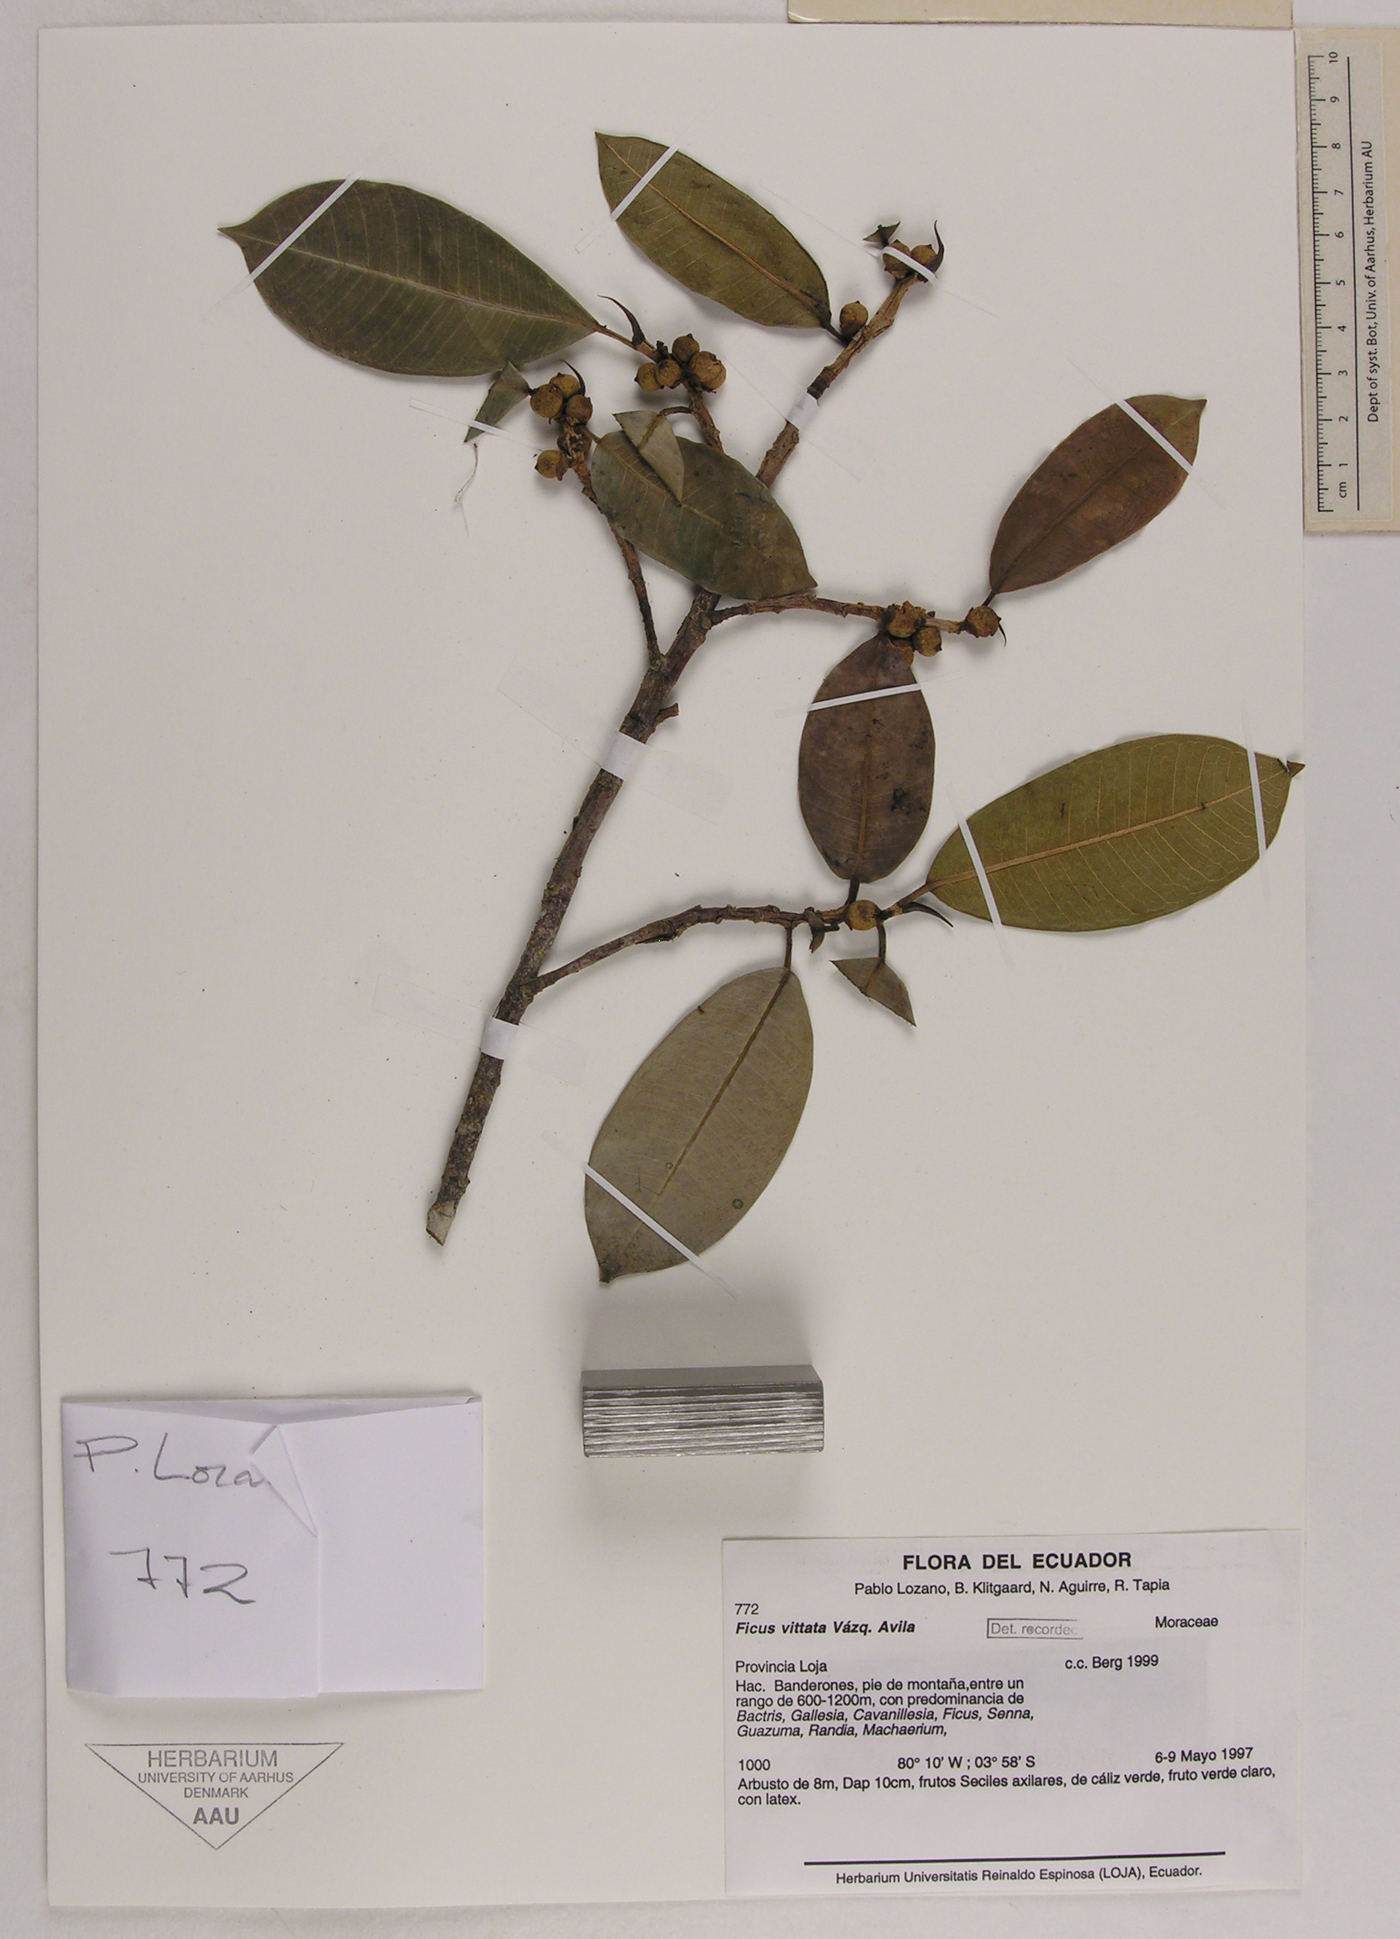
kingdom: Plantae
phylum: Tracheophyta
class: Magnoliopsida
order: Rosales
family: Moraceae
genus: Ficus
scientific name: Ficus vittata
